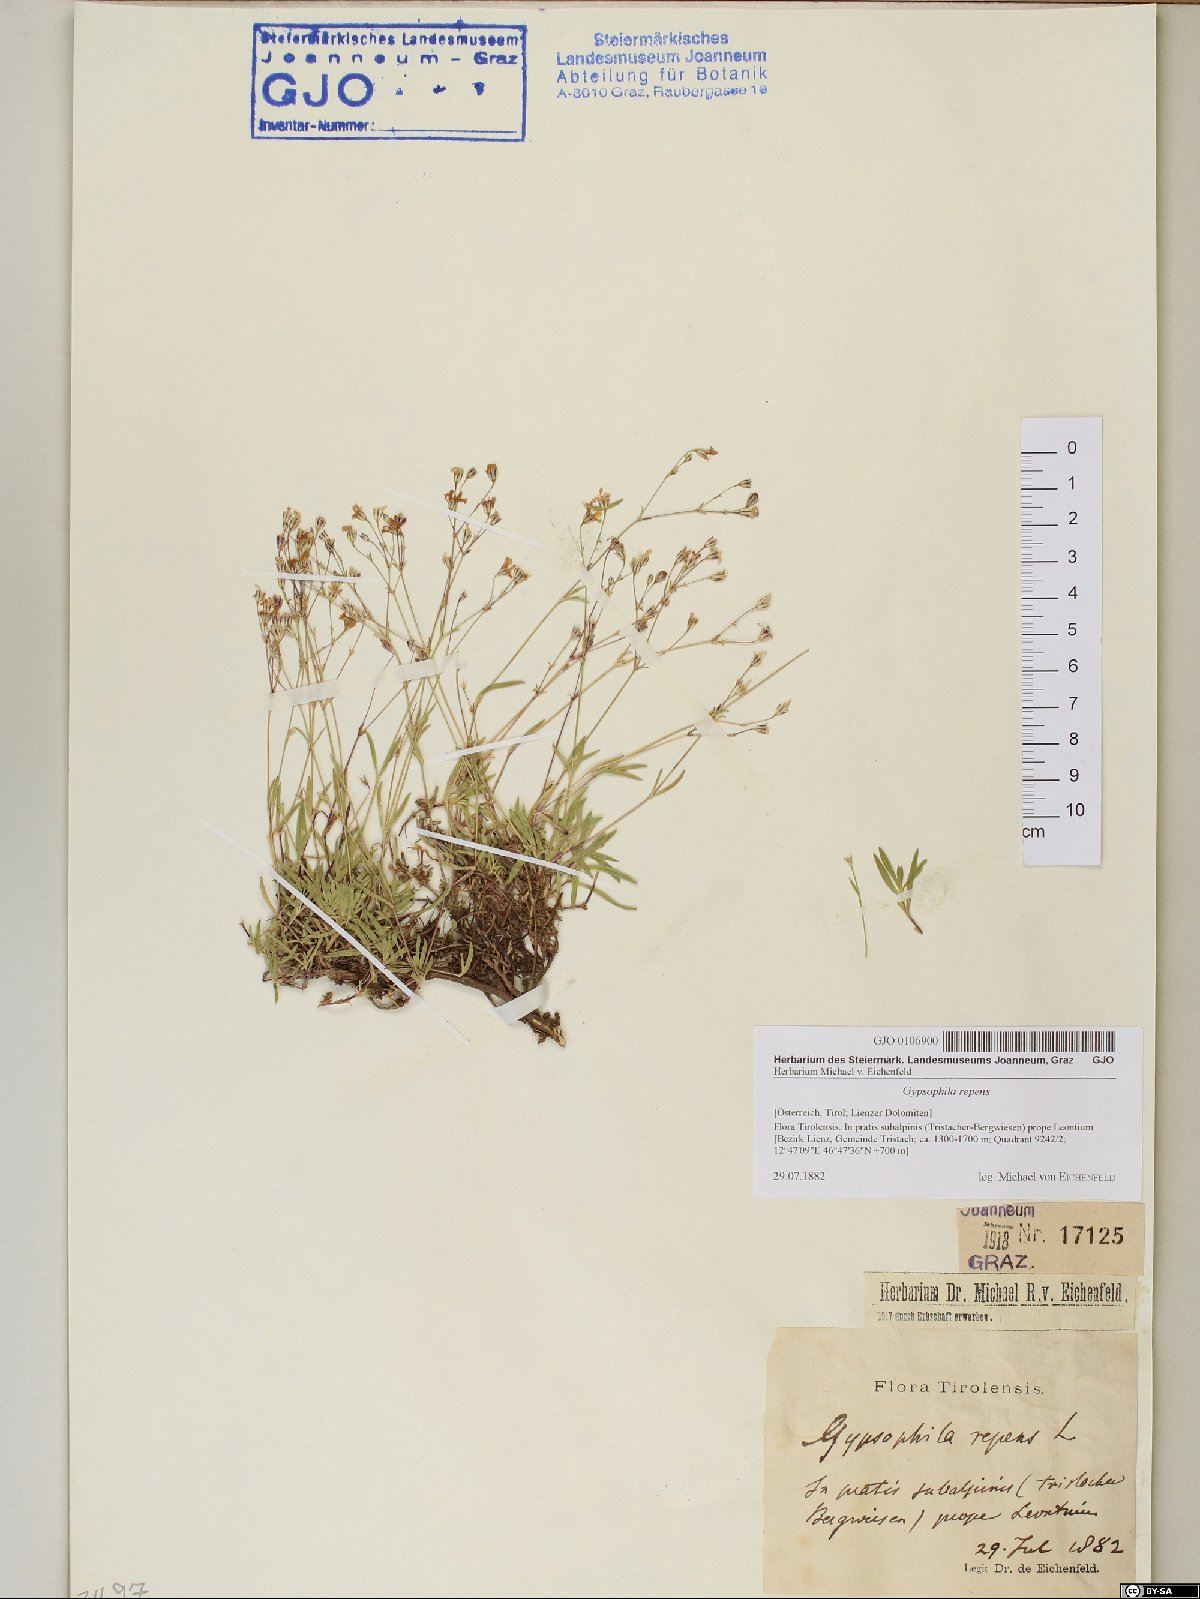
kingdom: Plantae
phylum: Tracheophyta
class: Magnoliopsida
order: Caryophyllales
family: Caryophyllaceae
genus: Gypsophila
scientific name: Gypsophila repens
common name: Creeping baby's-breath
